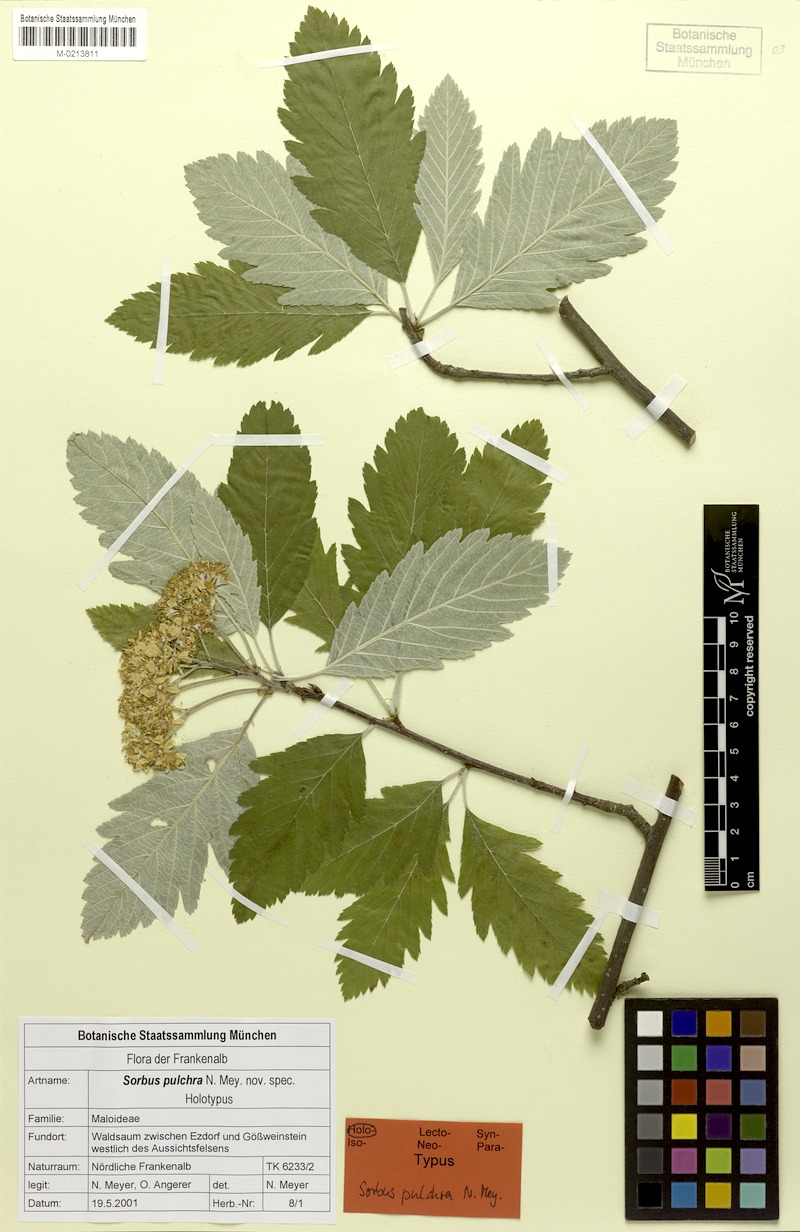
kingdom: Plantae
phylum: Tracheophyta
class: Magnoliopsida
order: Rosales
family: Rosaceae
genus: Hedlundia
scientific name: Hedlundia pulchra
